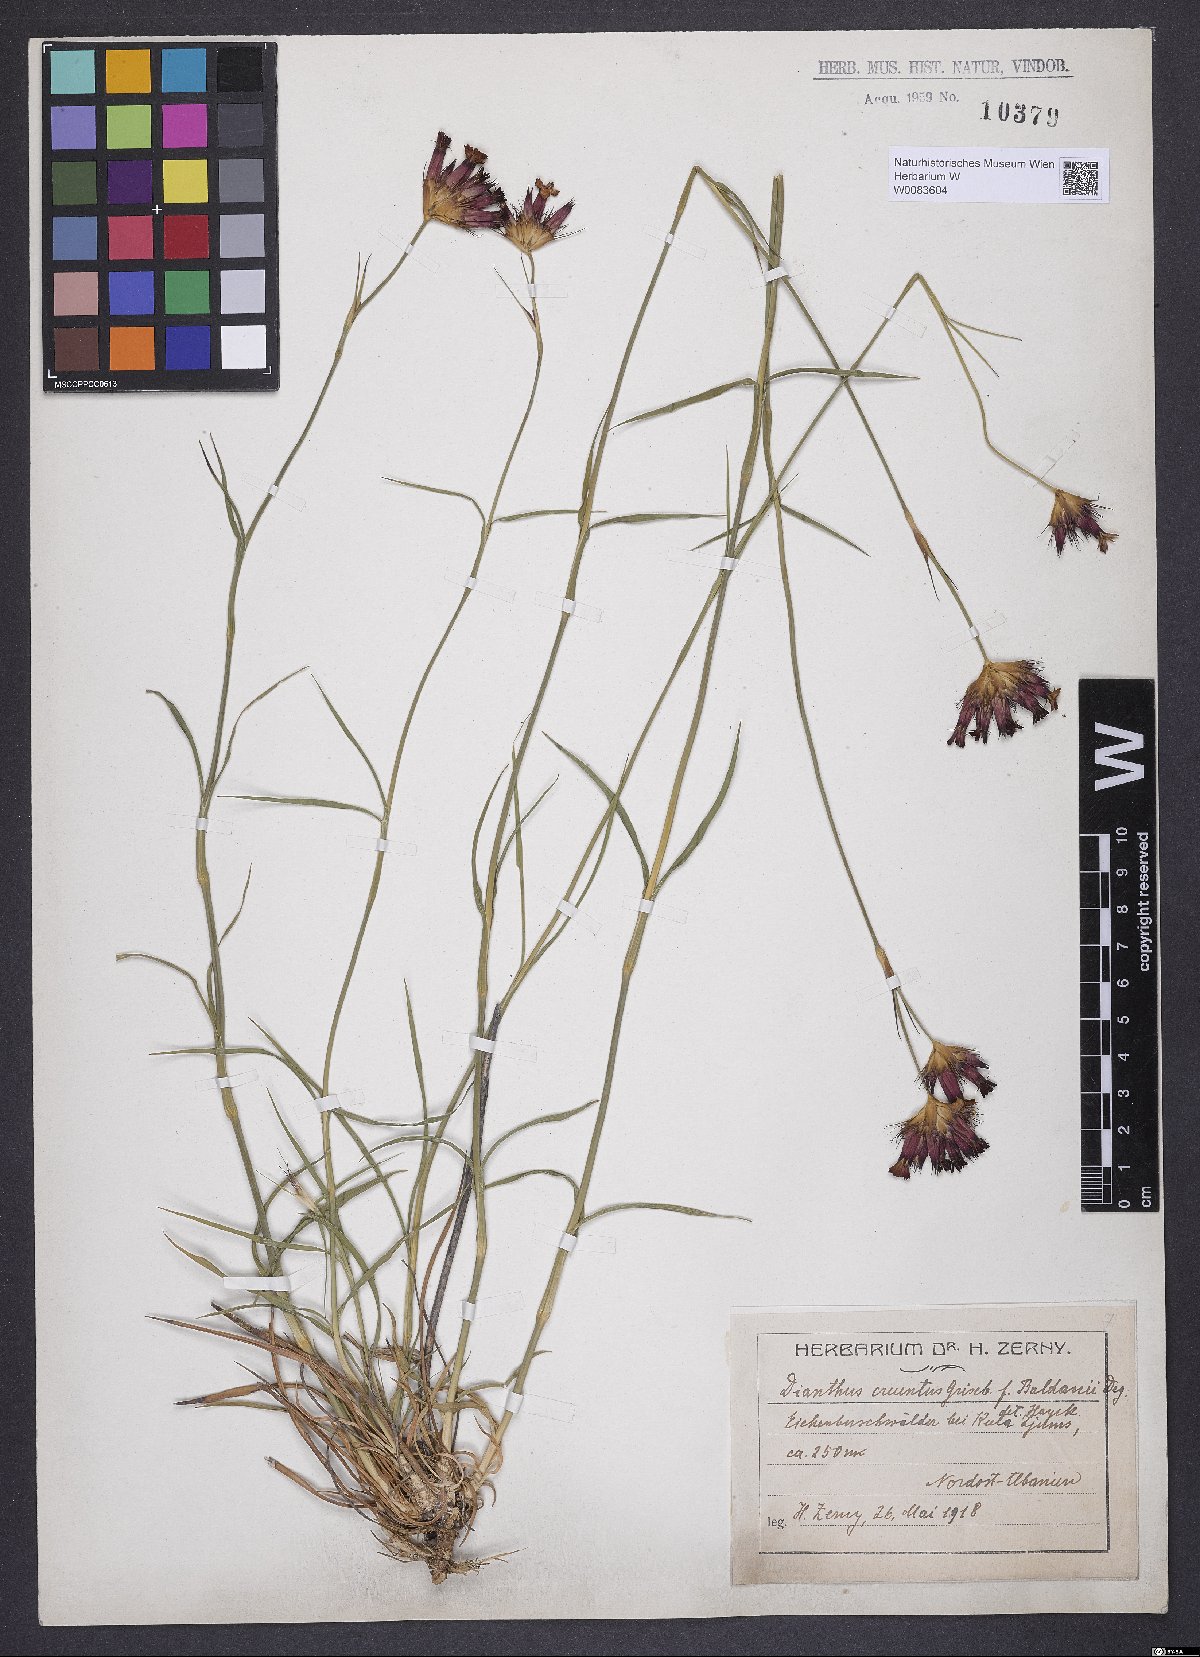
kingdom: Plantae
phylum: Tracheophyta
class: Magnoliopsida
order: Caryophyllales
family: Caryophyllaceae
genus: Dianthus
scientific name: Dianthus cruentus
